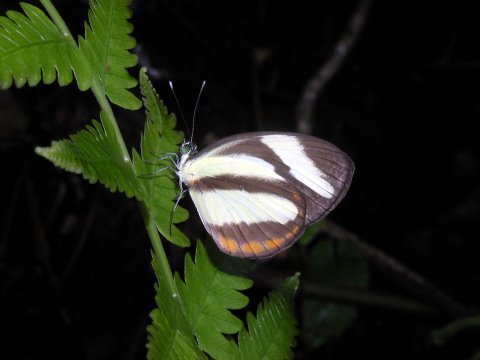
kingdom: Animalia
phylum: Arthropoda
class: Insecta
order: Lepidoptera
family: Pieridae
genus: Itaballia
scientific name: Itaballia pandosia
